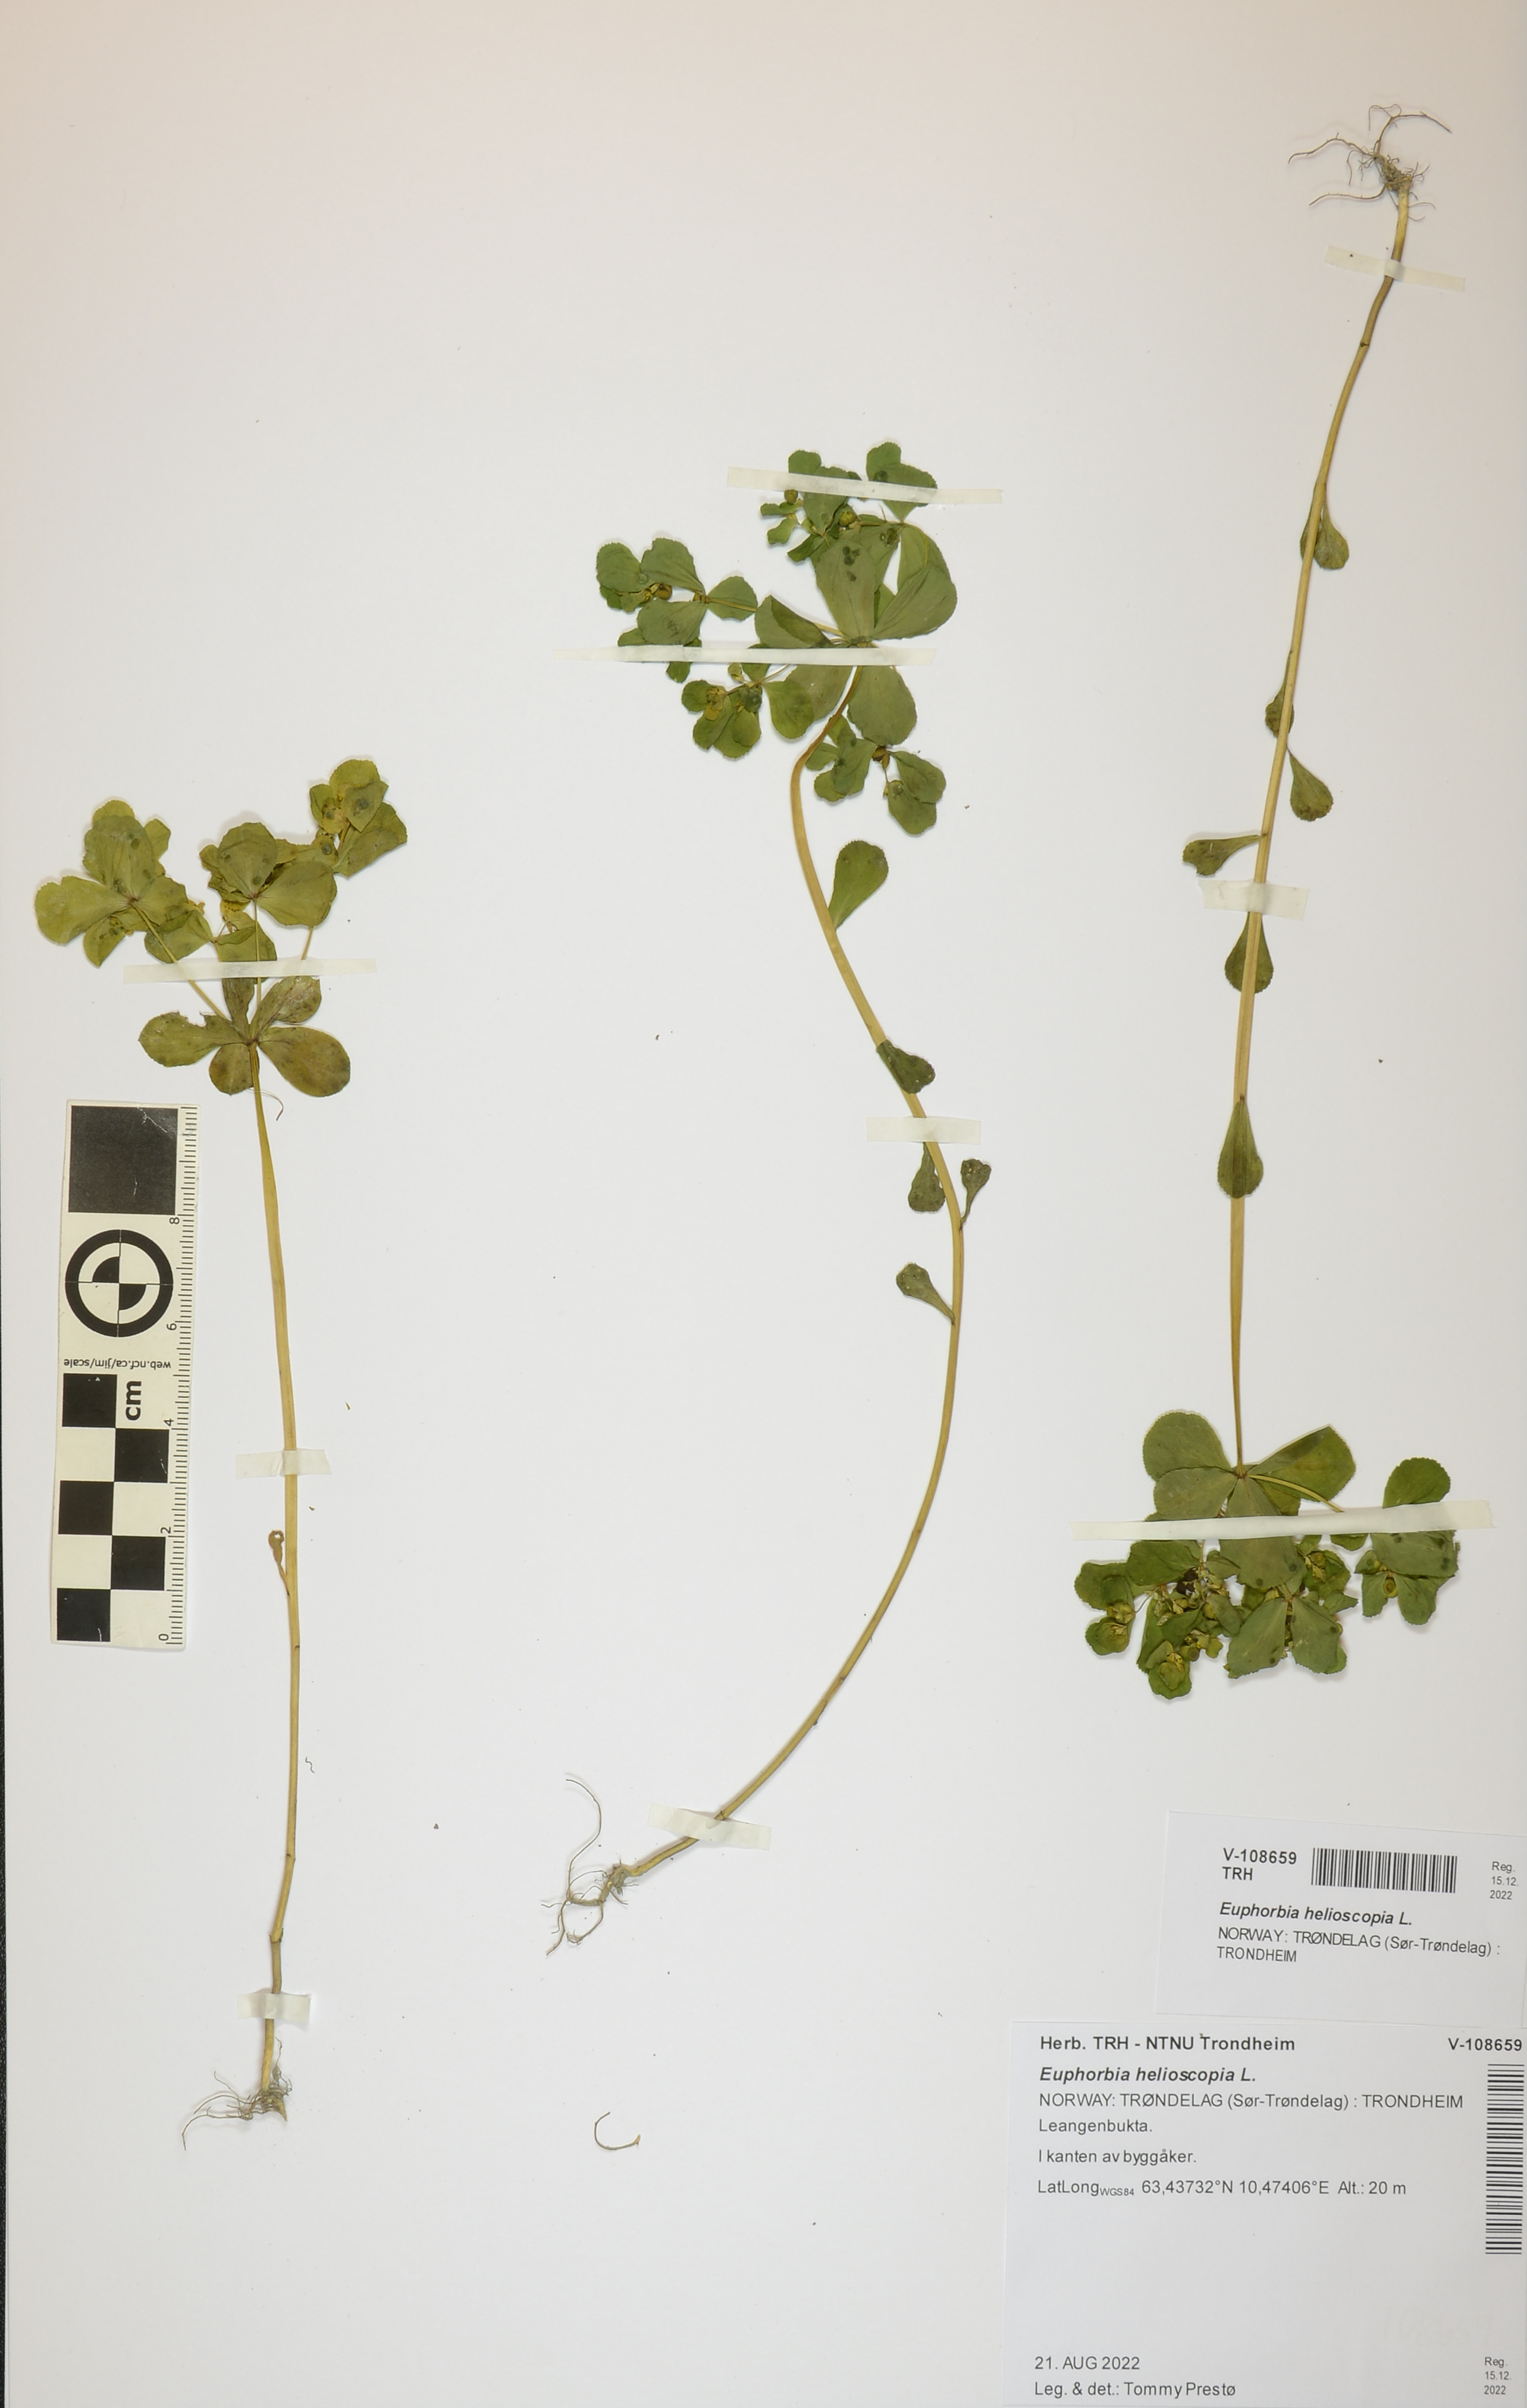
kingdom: Plantae
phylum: Tracheophyta
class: Magnoliopsida
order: Malpighiales
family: Euphorbiaceae
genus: Euphorbia
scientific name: Euphorbia helioscopia
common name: Sun spurge
